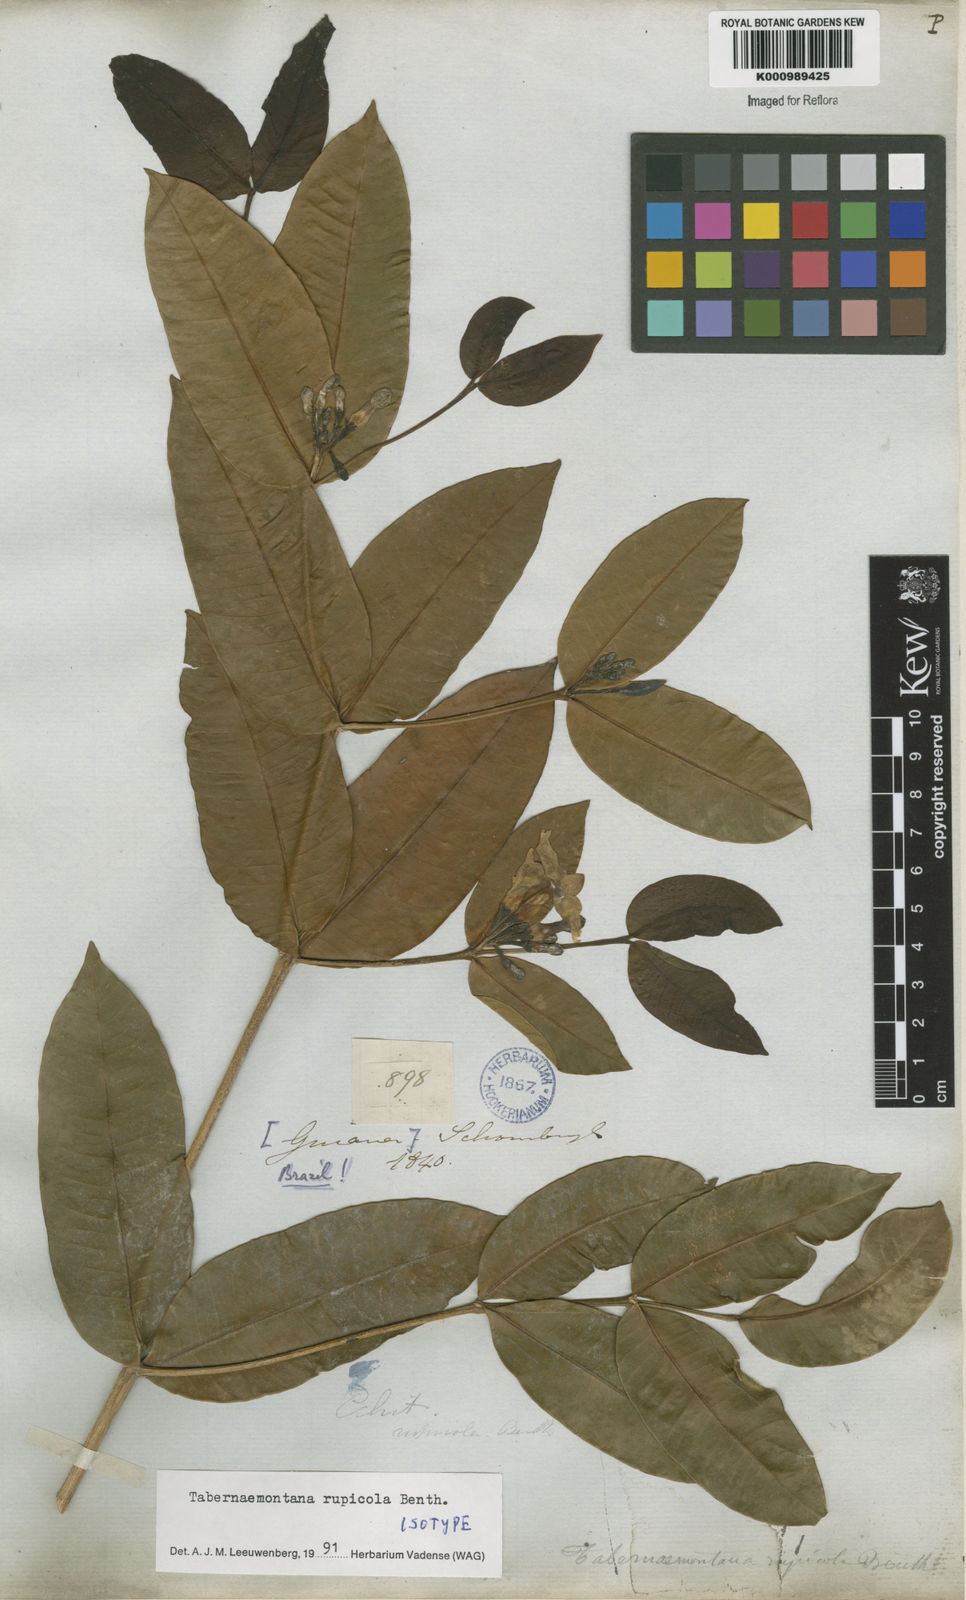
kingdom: Plantae
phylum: Tracheophyta
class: Magnoliopsida
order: Gentianales
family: Apocynaceae
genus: Tabernaemontana
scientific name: Tabernaemontana rupicola
